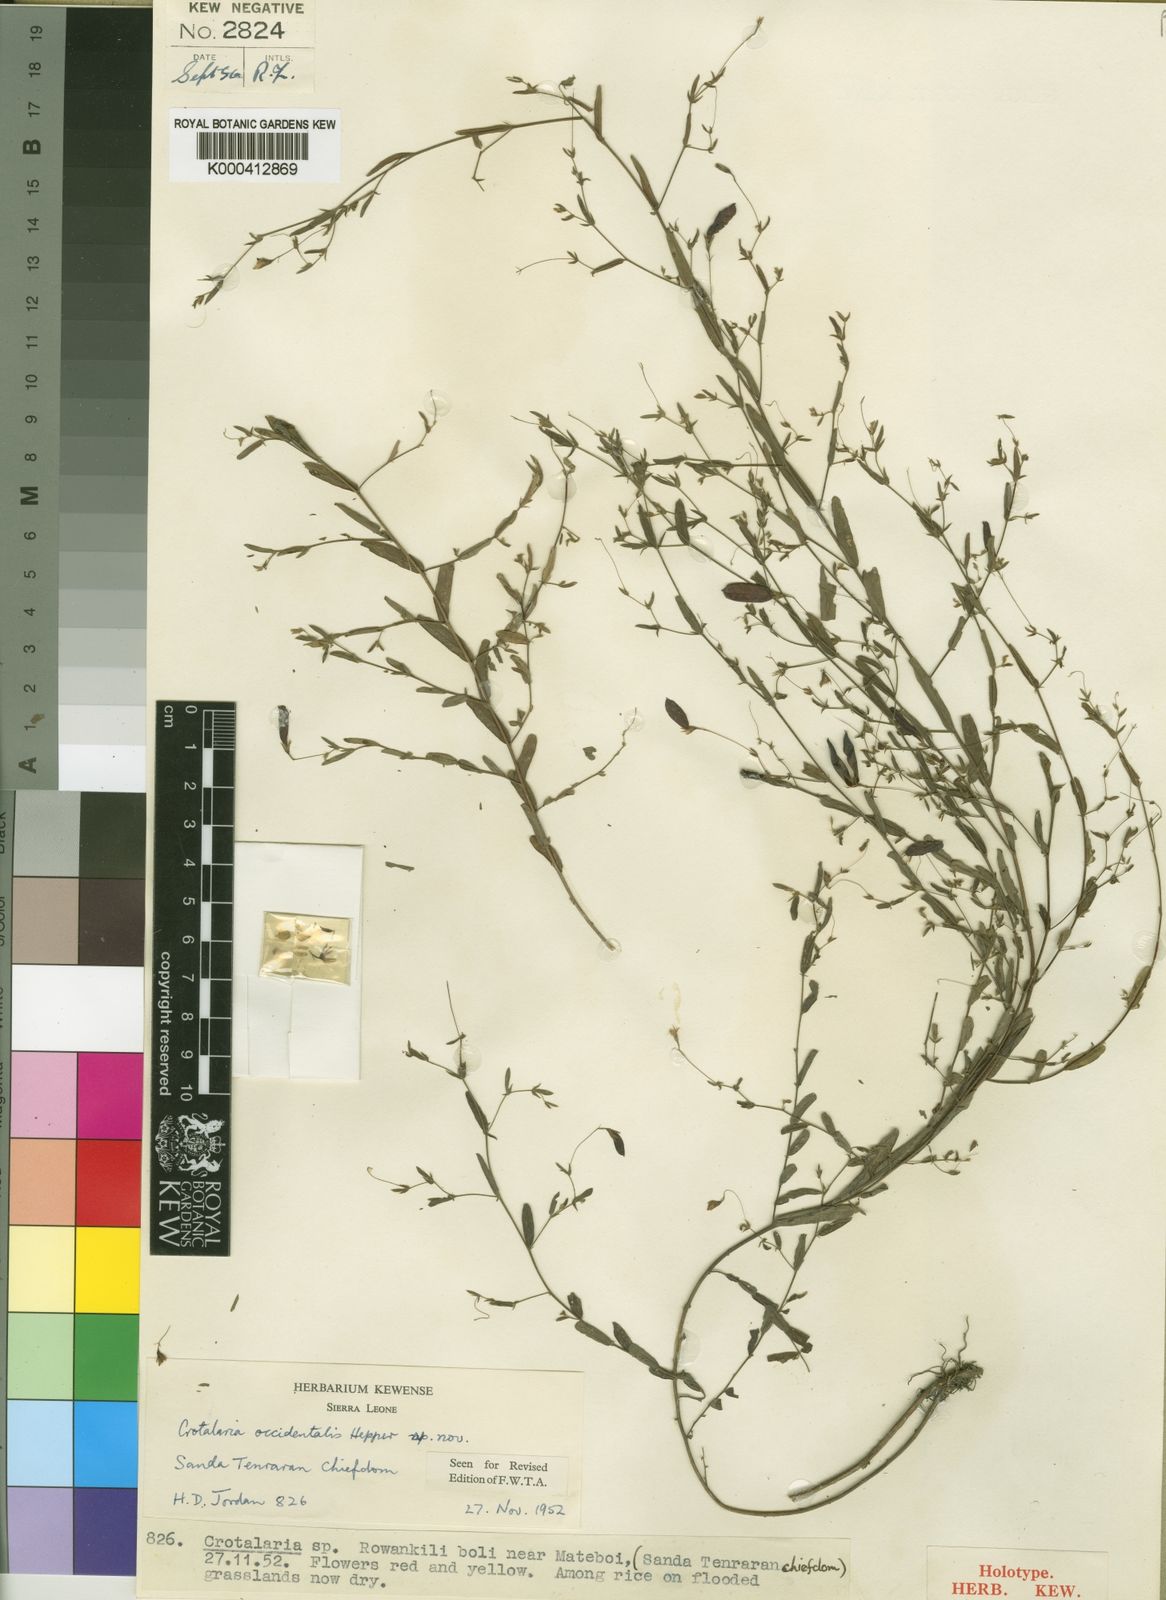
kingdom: Plantae
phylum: Tracheophyta
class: Magnoliopsida
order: Fabales
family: Fabaceae
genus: Crotalaria
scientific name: Crotalaria occidentalis
